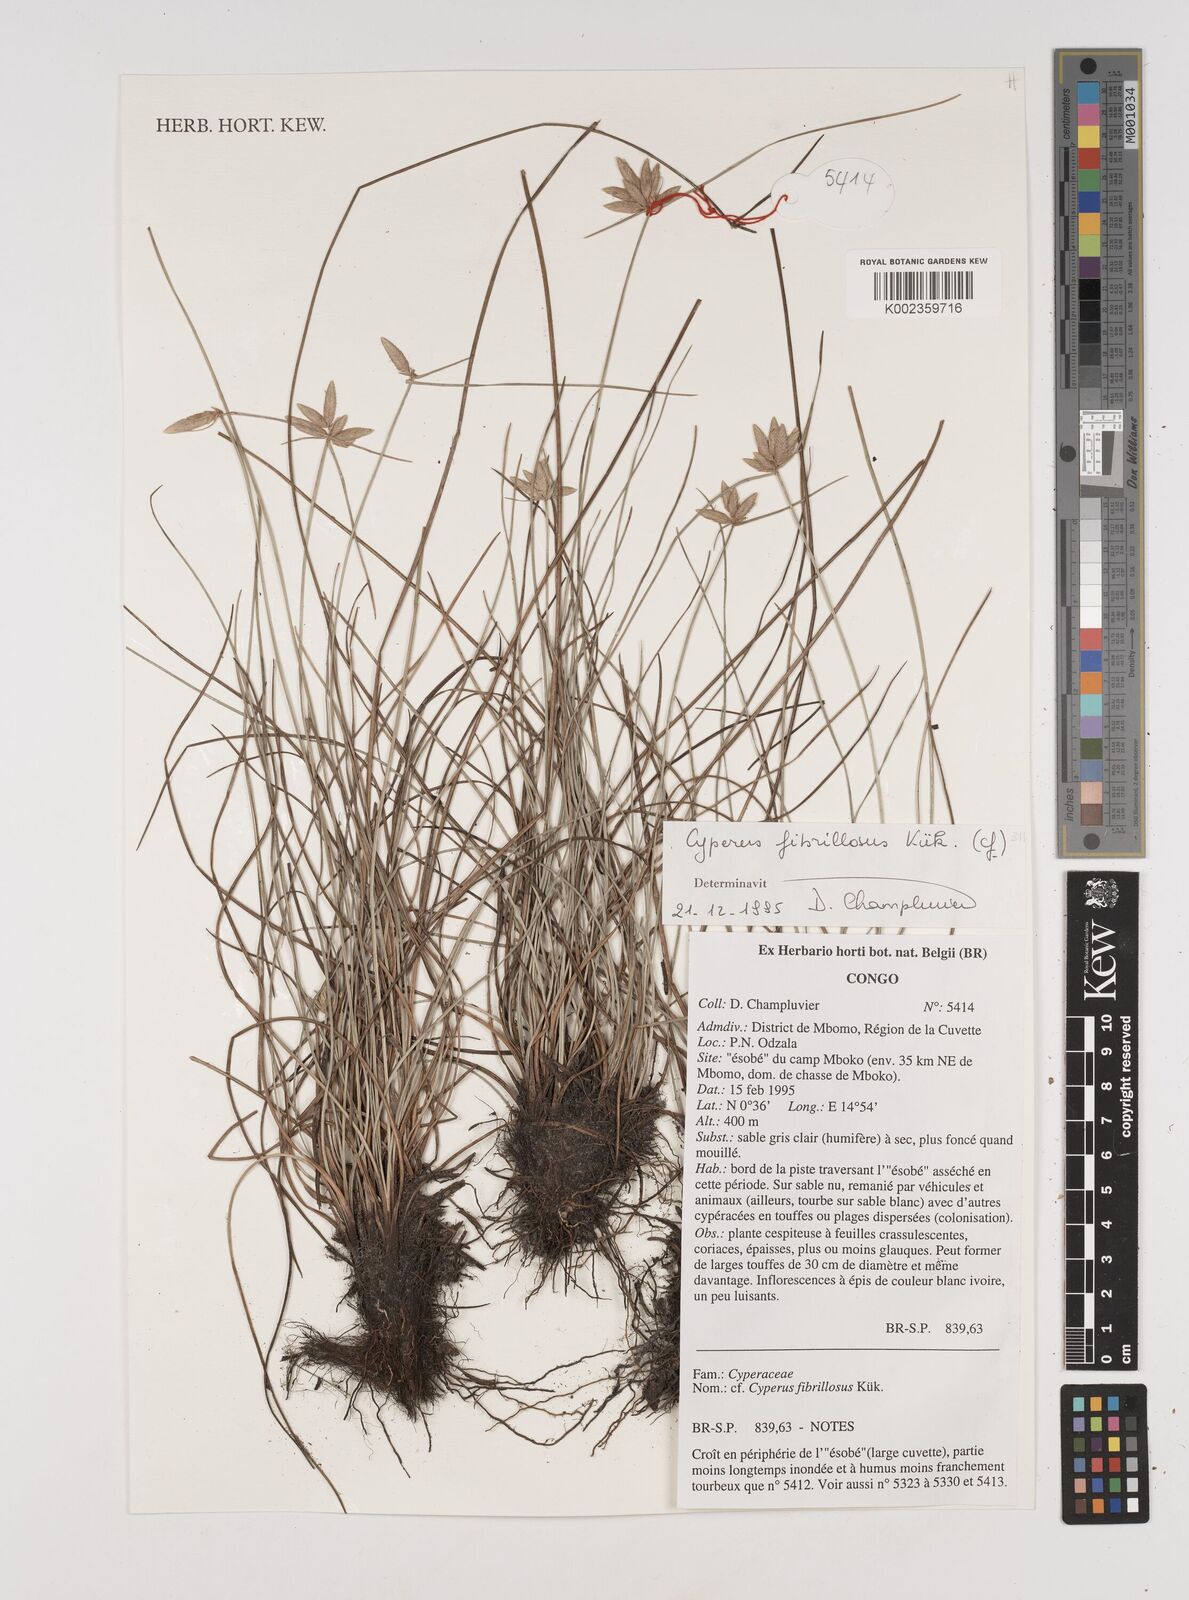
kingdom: Plantae
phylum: Tracheophyta
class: Liliopsida
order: Poales
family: Cyperaceae
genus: Cyperus
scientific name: Cyperus laevigatus
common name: Smooth flat sedge
